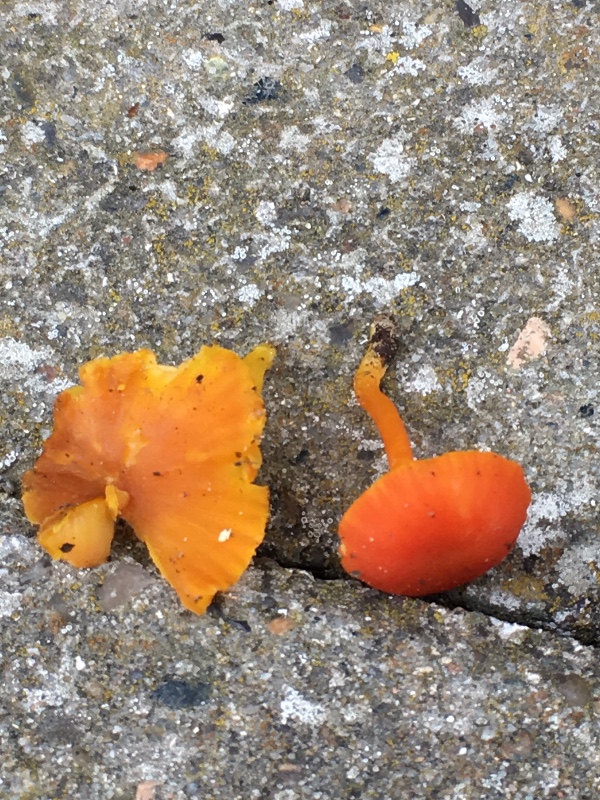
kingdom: Fungi
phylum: Basidiomycota
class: Agaricomycetes
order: Agaricales
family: Hygrophoraceae
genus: Hygrocybe
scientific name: Hygrocybe
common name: vokshat
